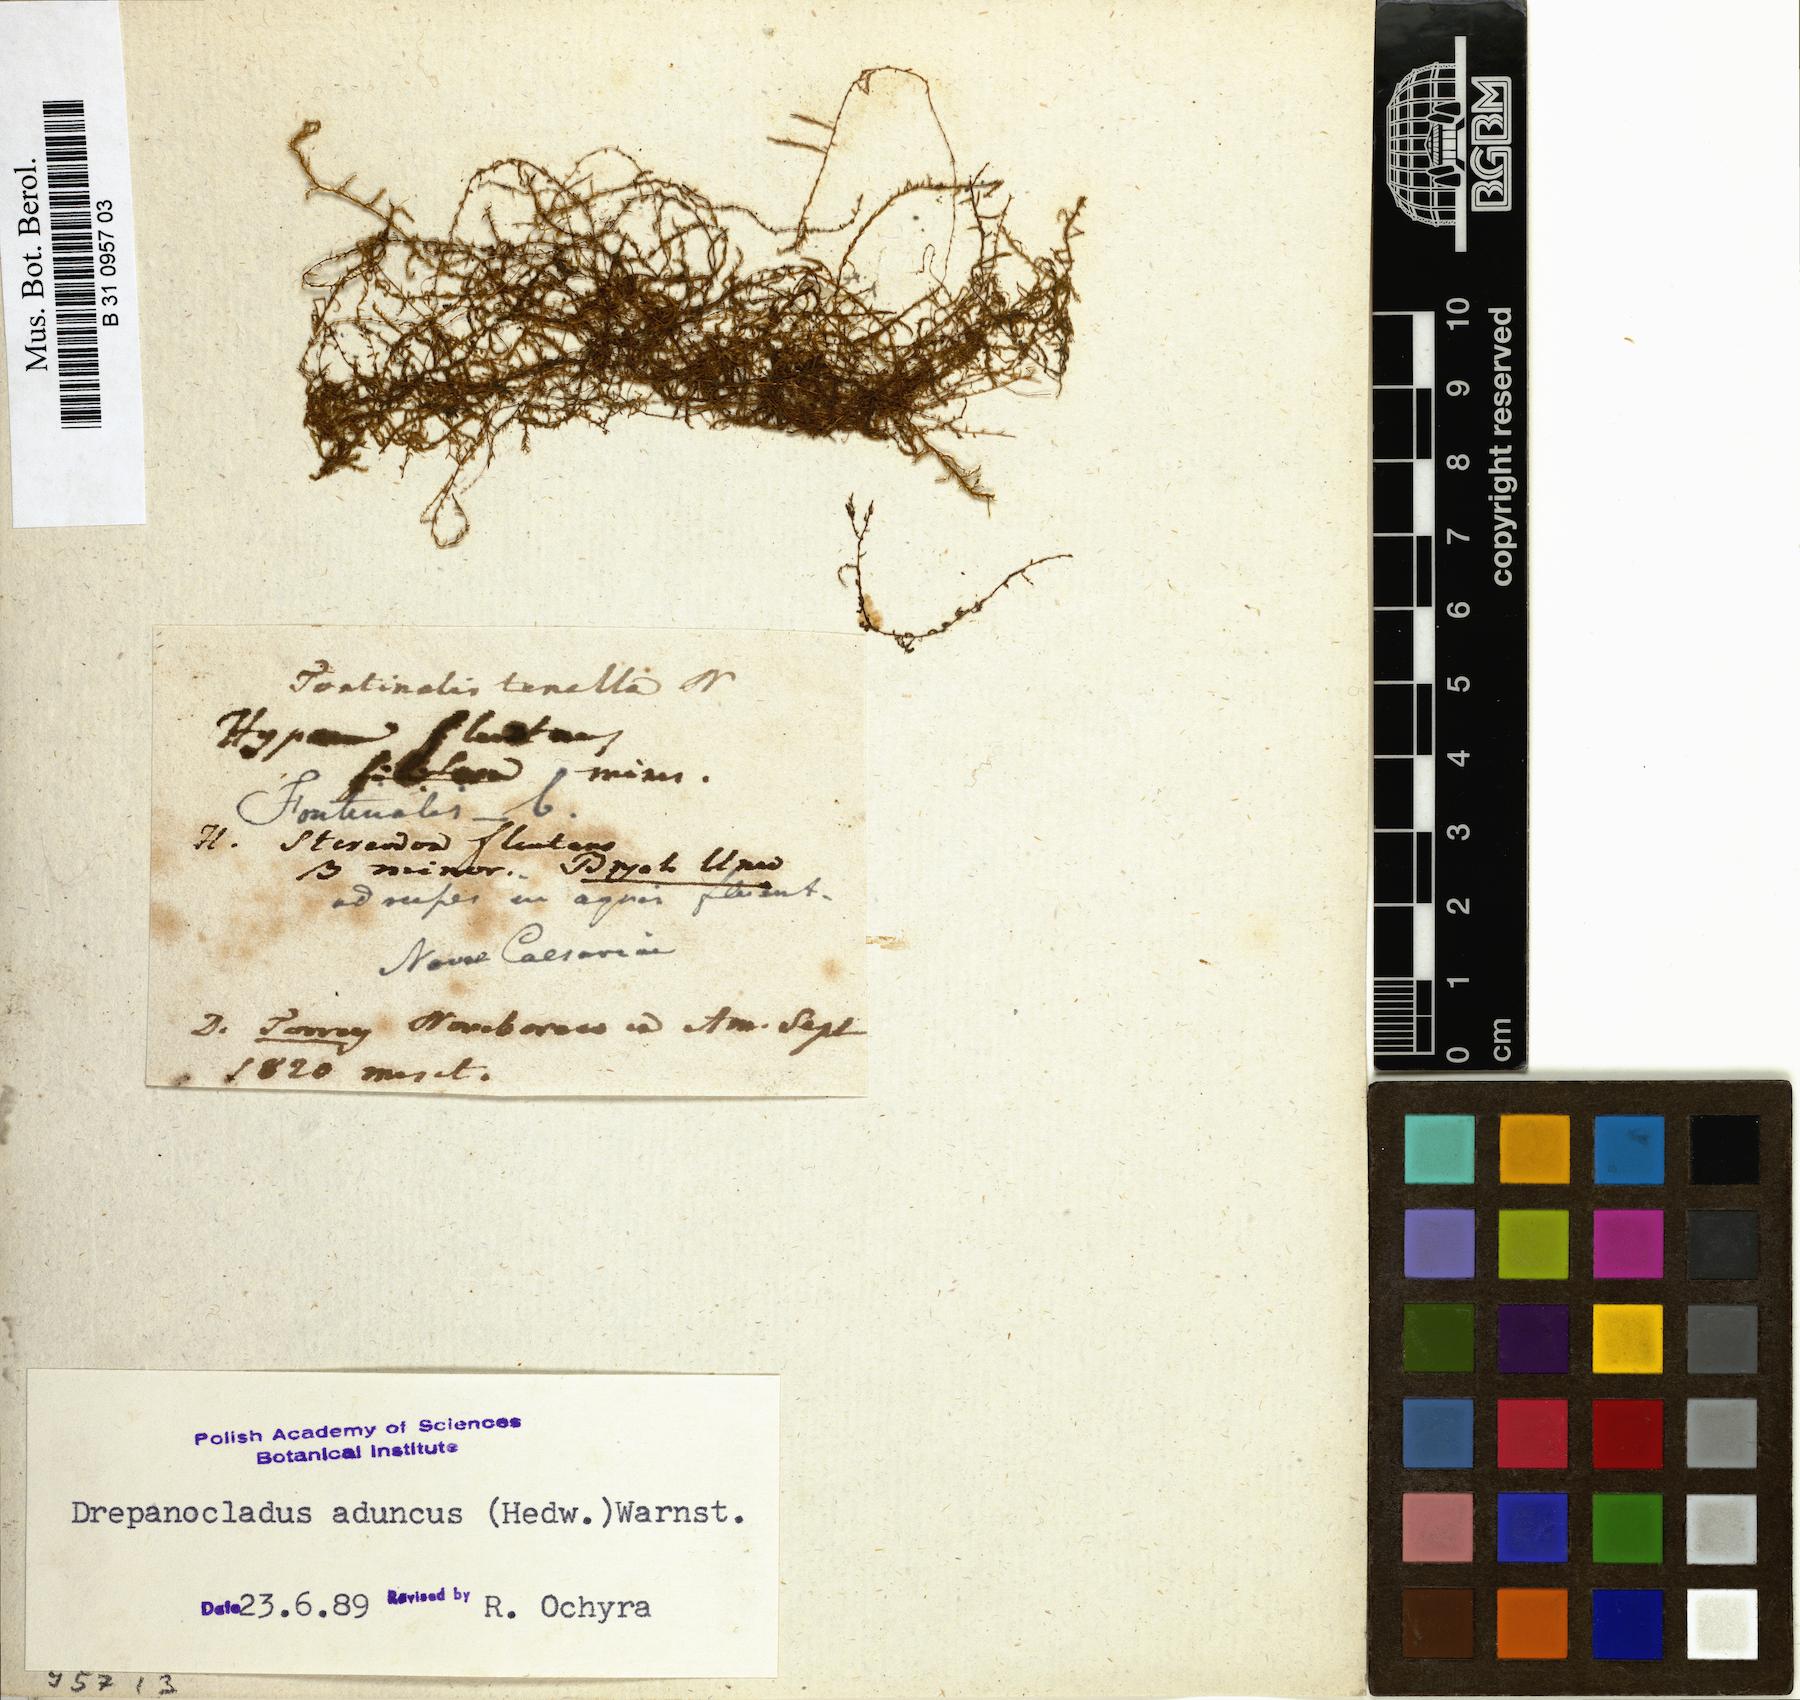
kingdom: Plantae
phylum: Bryophyta
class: Bryopsida
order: Hypnales
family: Calliergonaceae
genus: Warnstorfia
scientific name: Warnstorfia fluitans
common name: Floating hook moss
